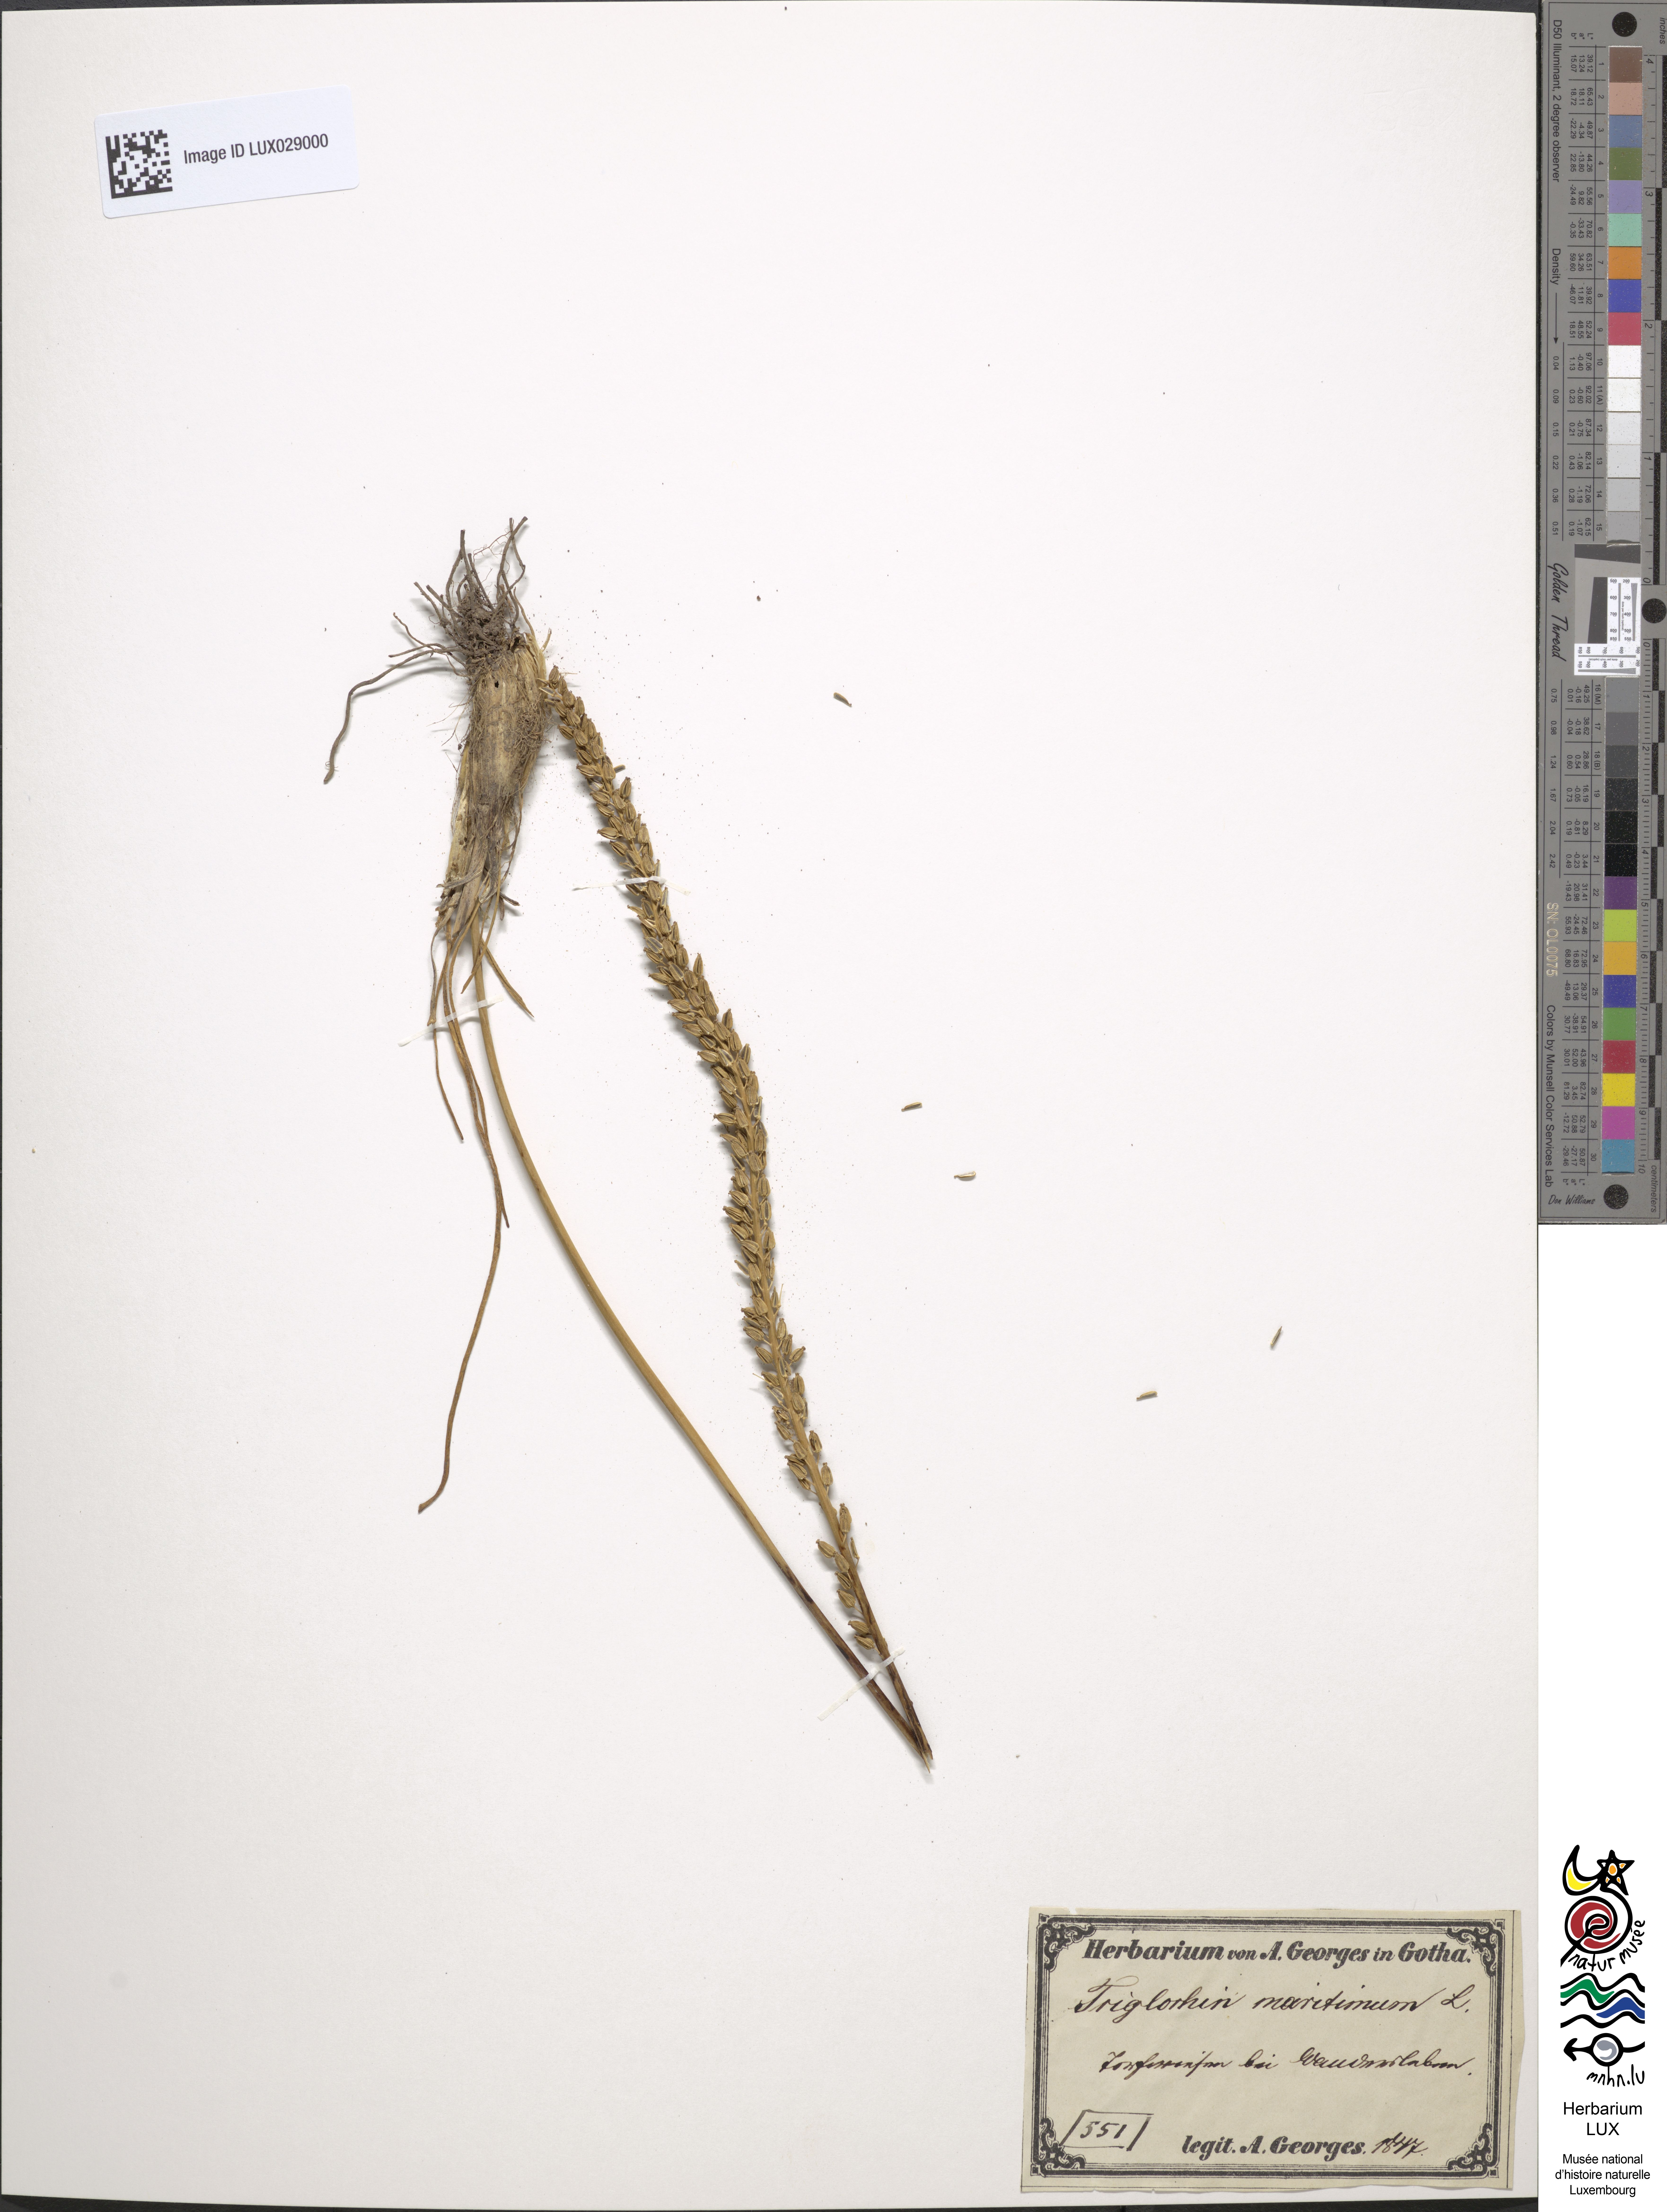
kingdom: Plantae
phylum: Tracheophyta
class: Liliopsida
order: Alismatales
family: Juncaginaceae
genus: Triglochin
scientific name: Triglochin maritima
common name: Sea arrowgrass
